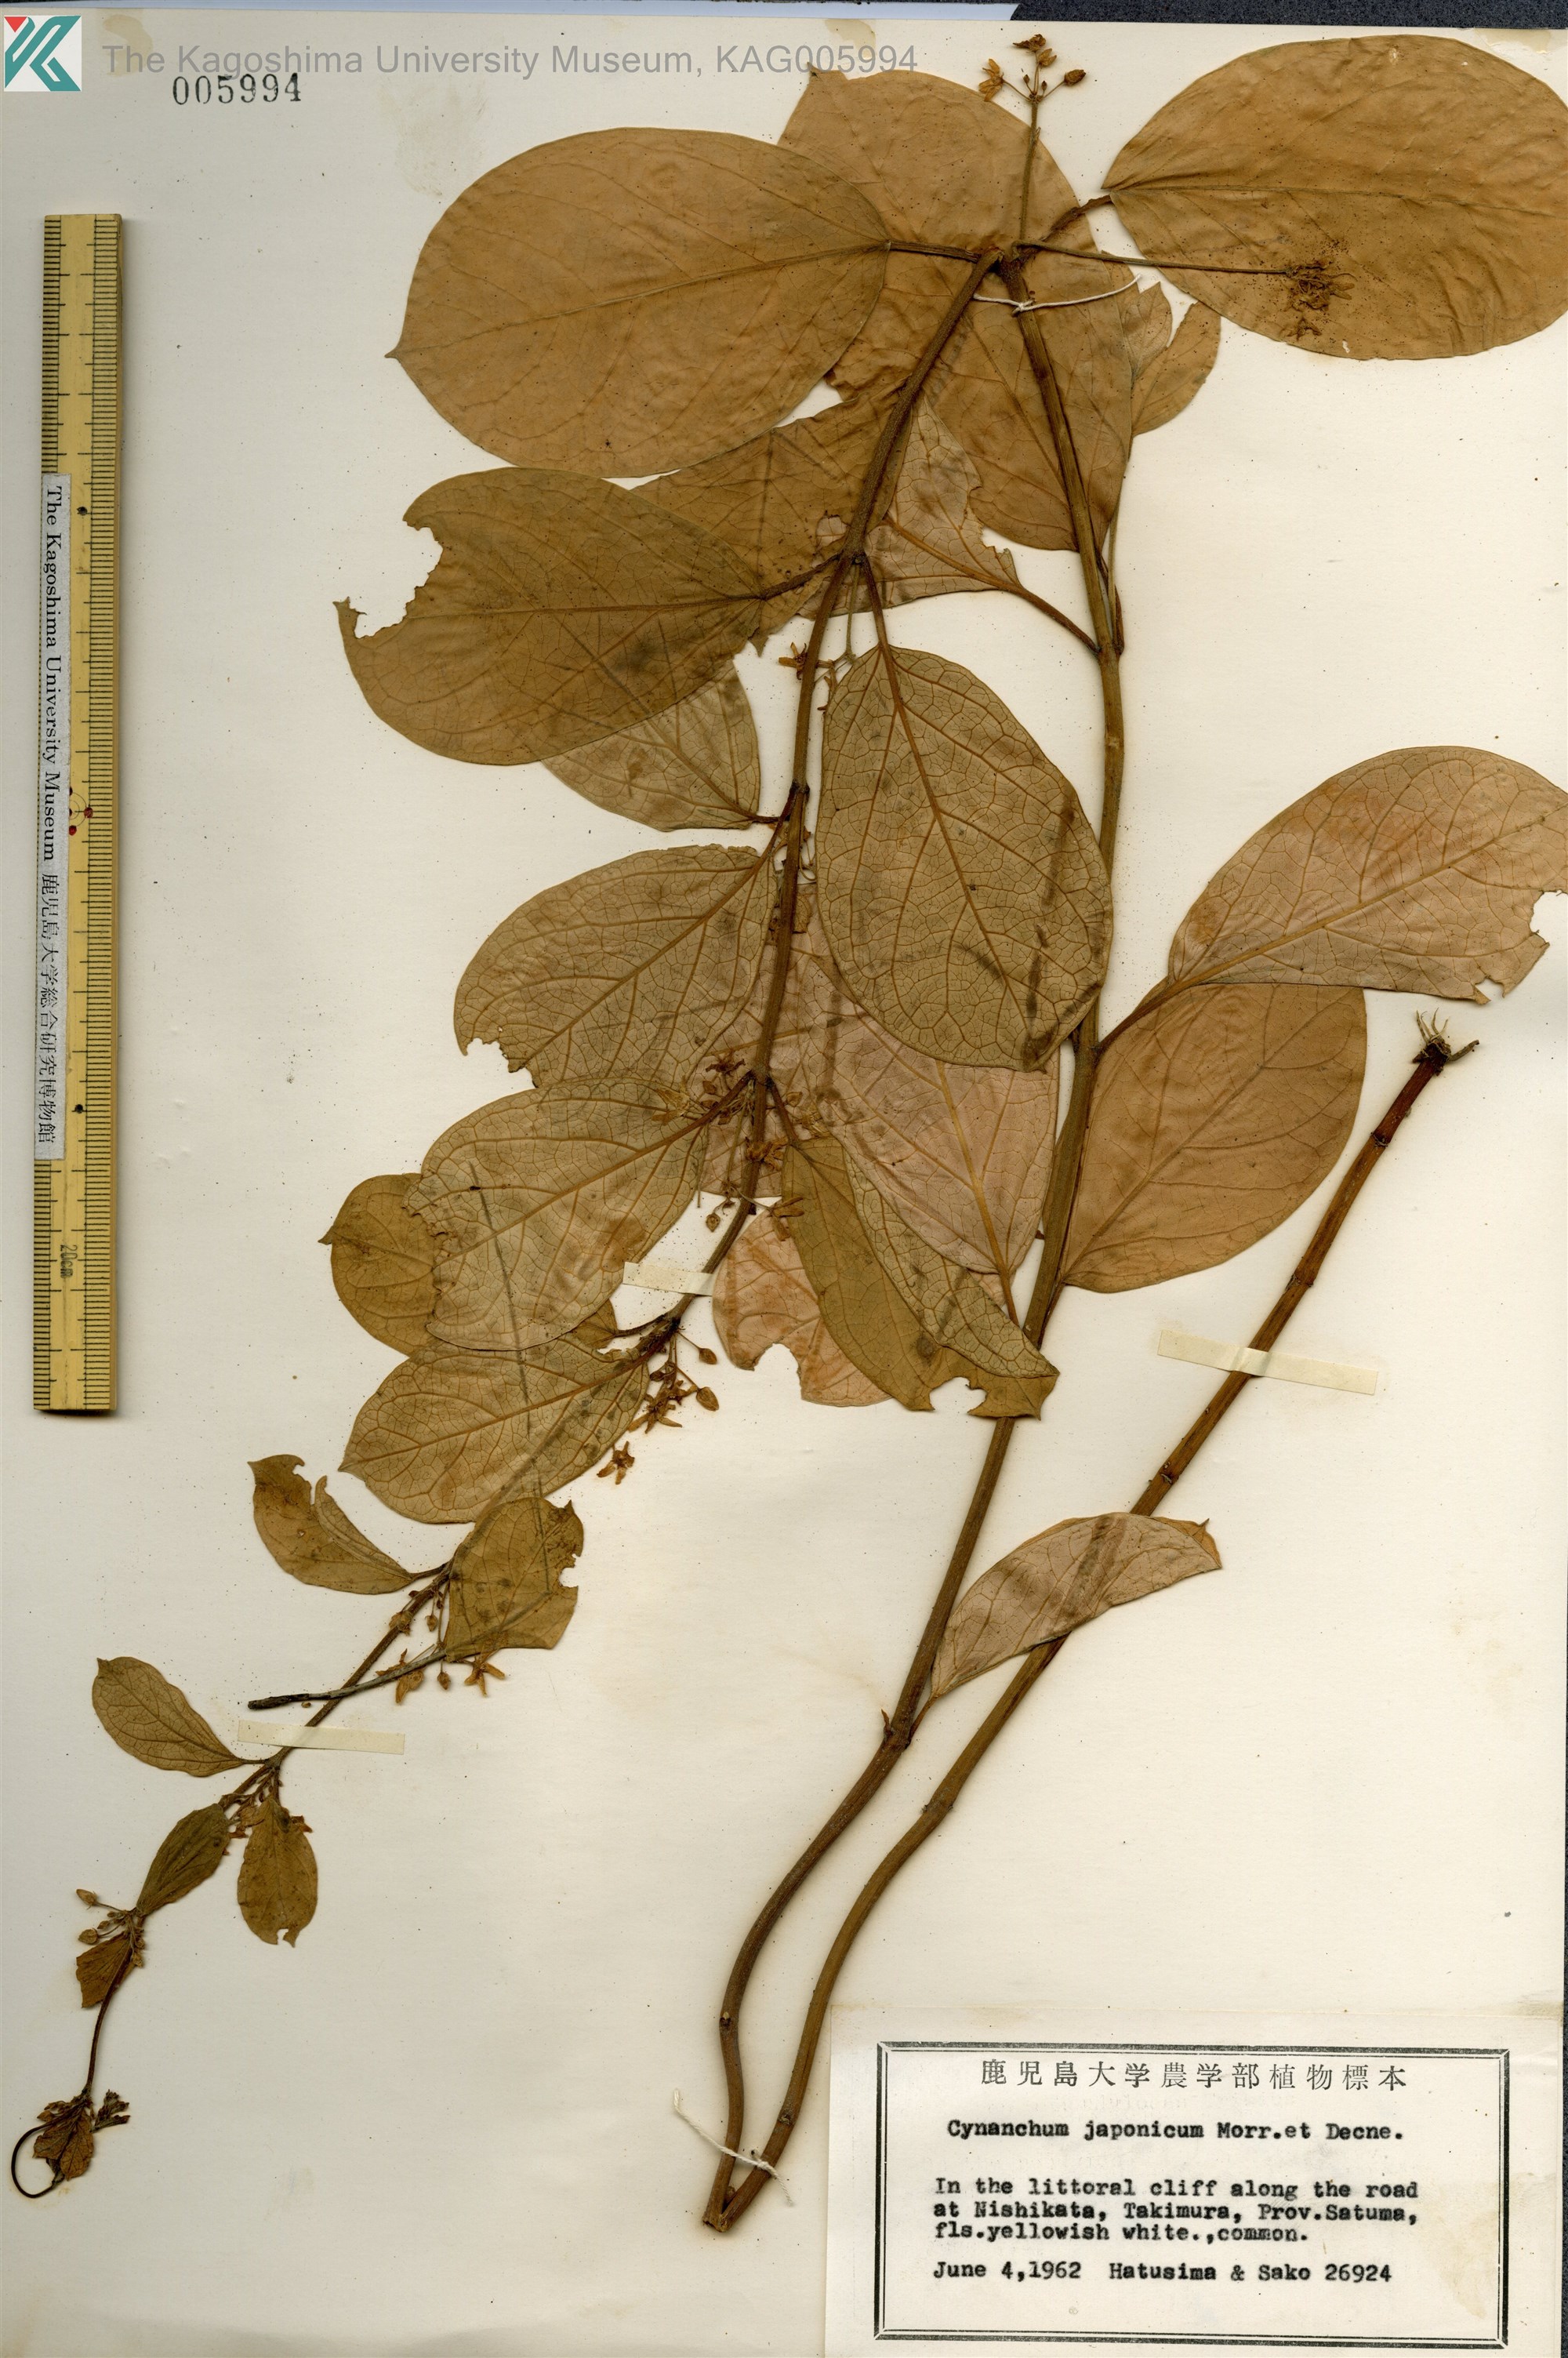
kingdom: Plantae
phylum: Tracheophyta
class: Magnoliopsida
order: Gentianales
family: Apocynaceae
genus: Vincetoxicum
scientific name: Vincetoxicum japonicum
